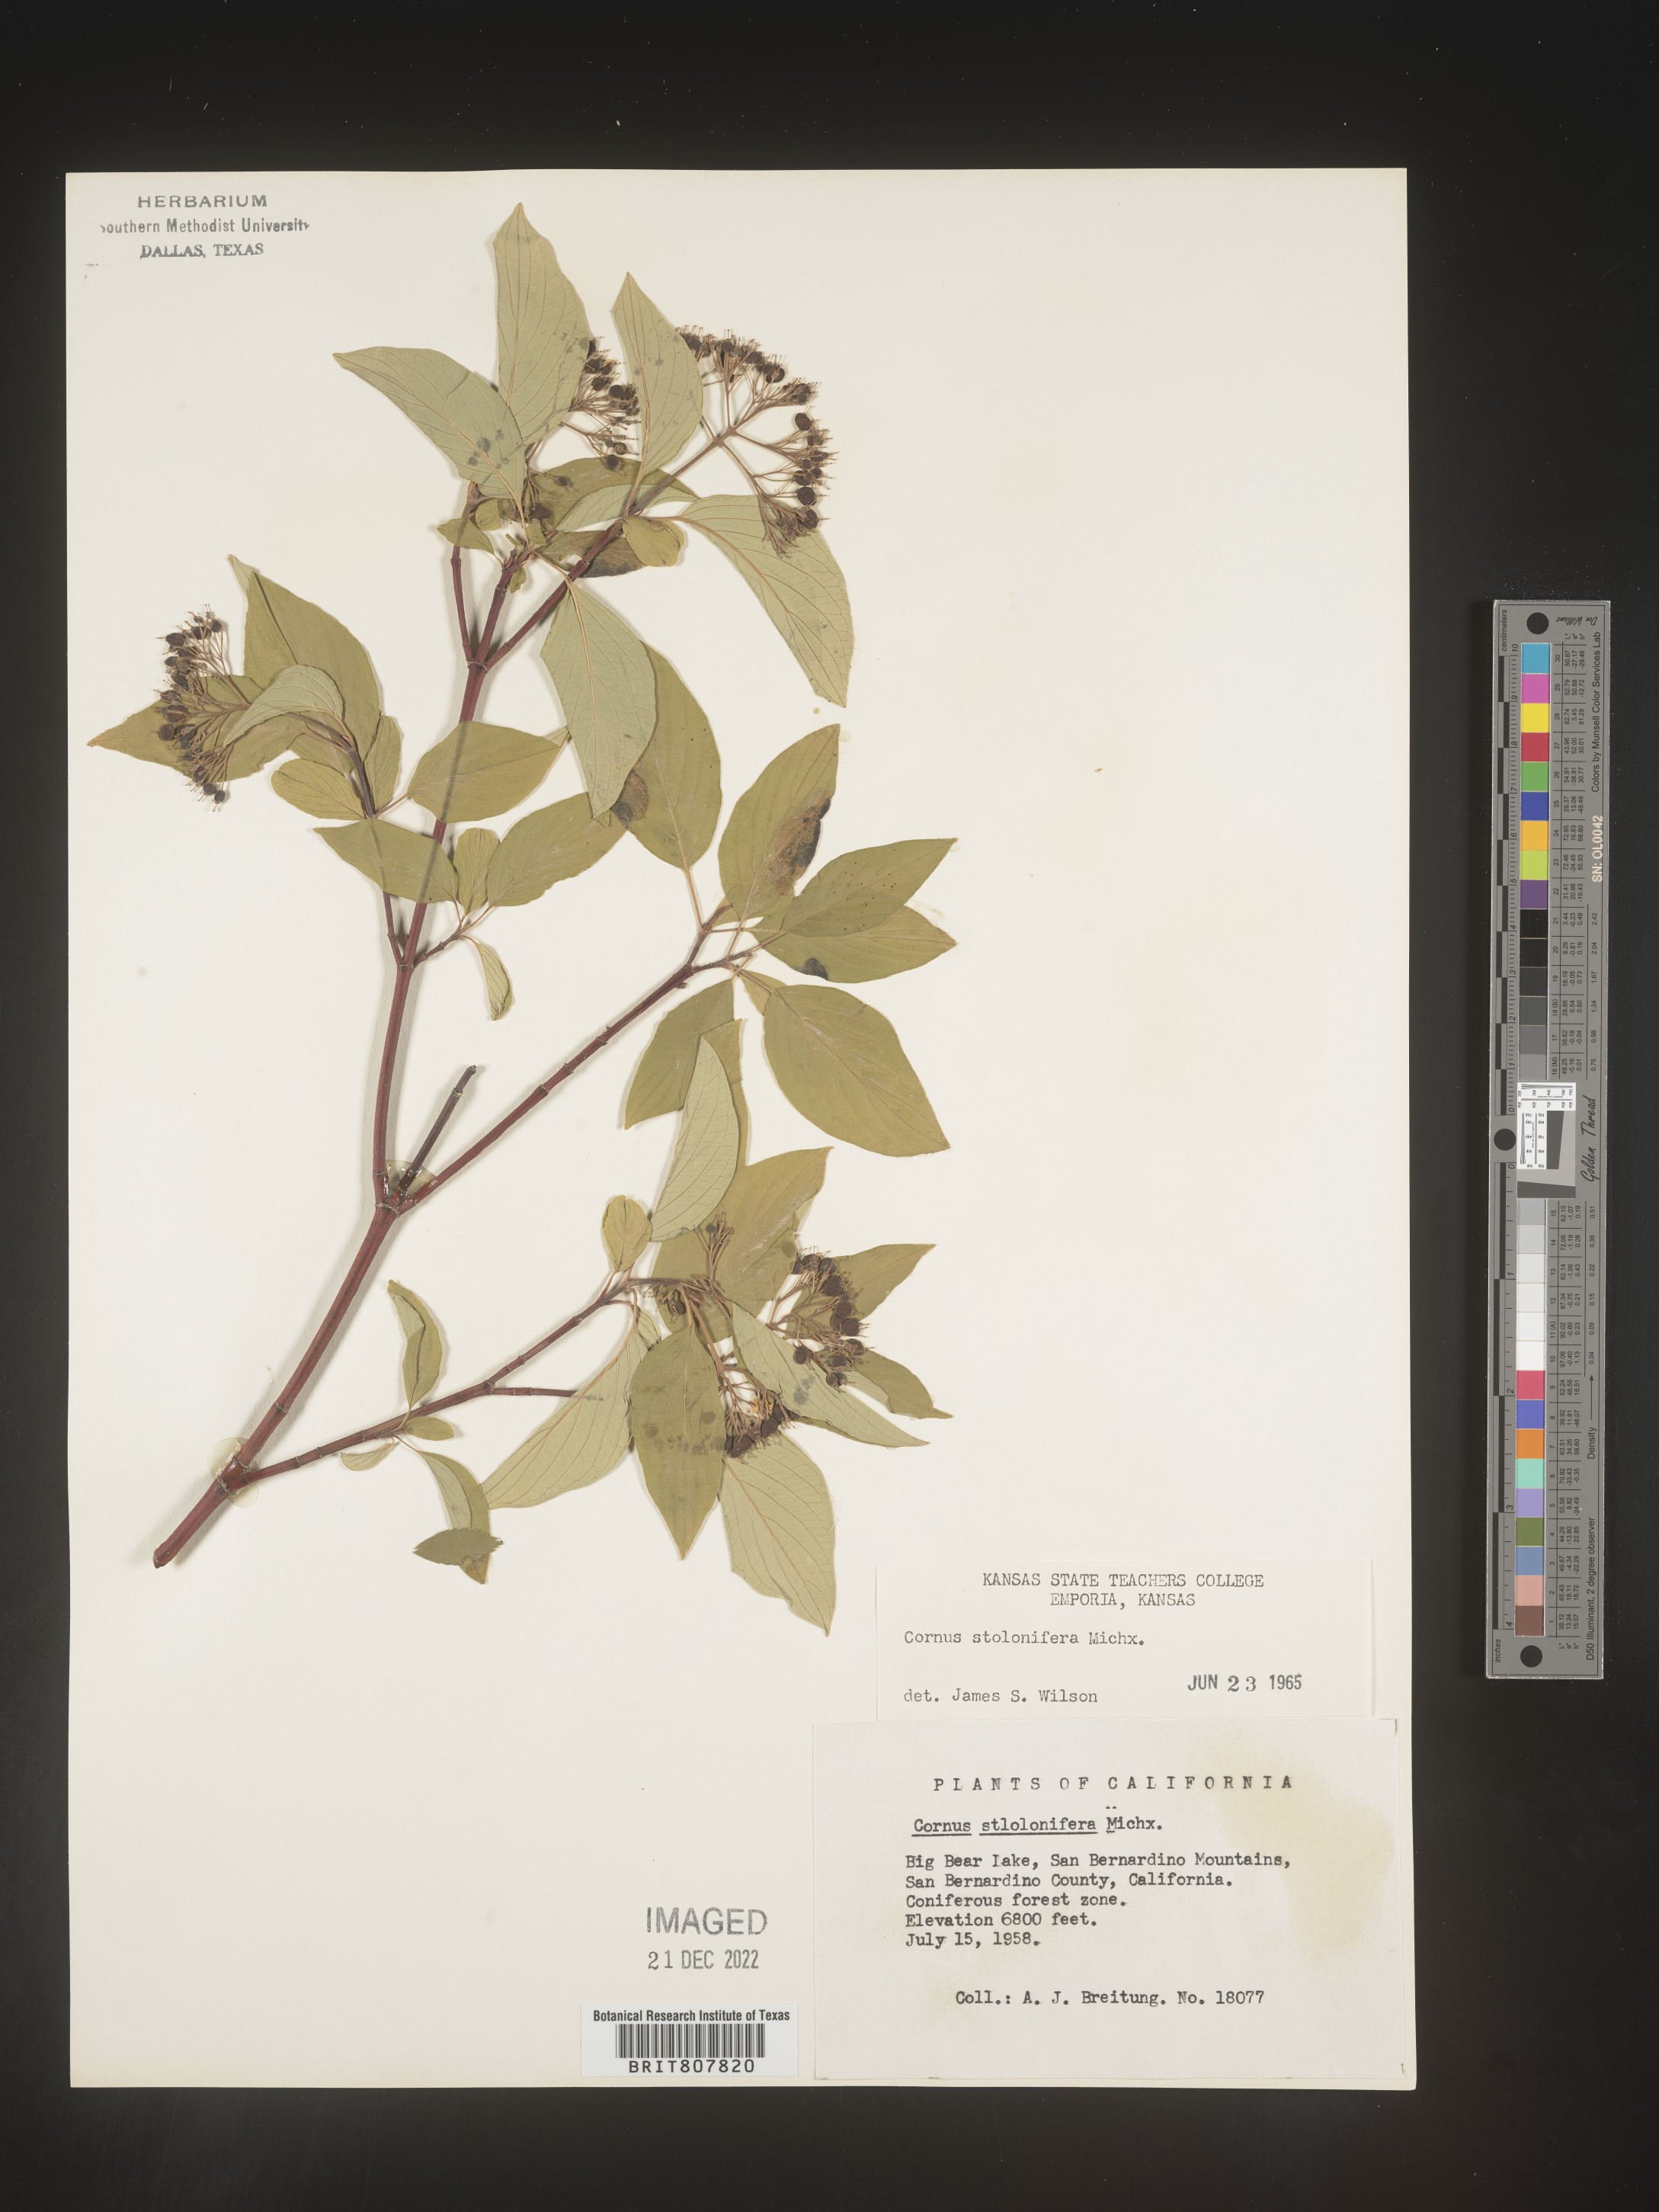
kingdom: Plantae
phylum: Tracheophyta
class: Magnoliopsida
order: Cornales
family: Cornaceae
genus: Cornus
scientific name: Cornus
